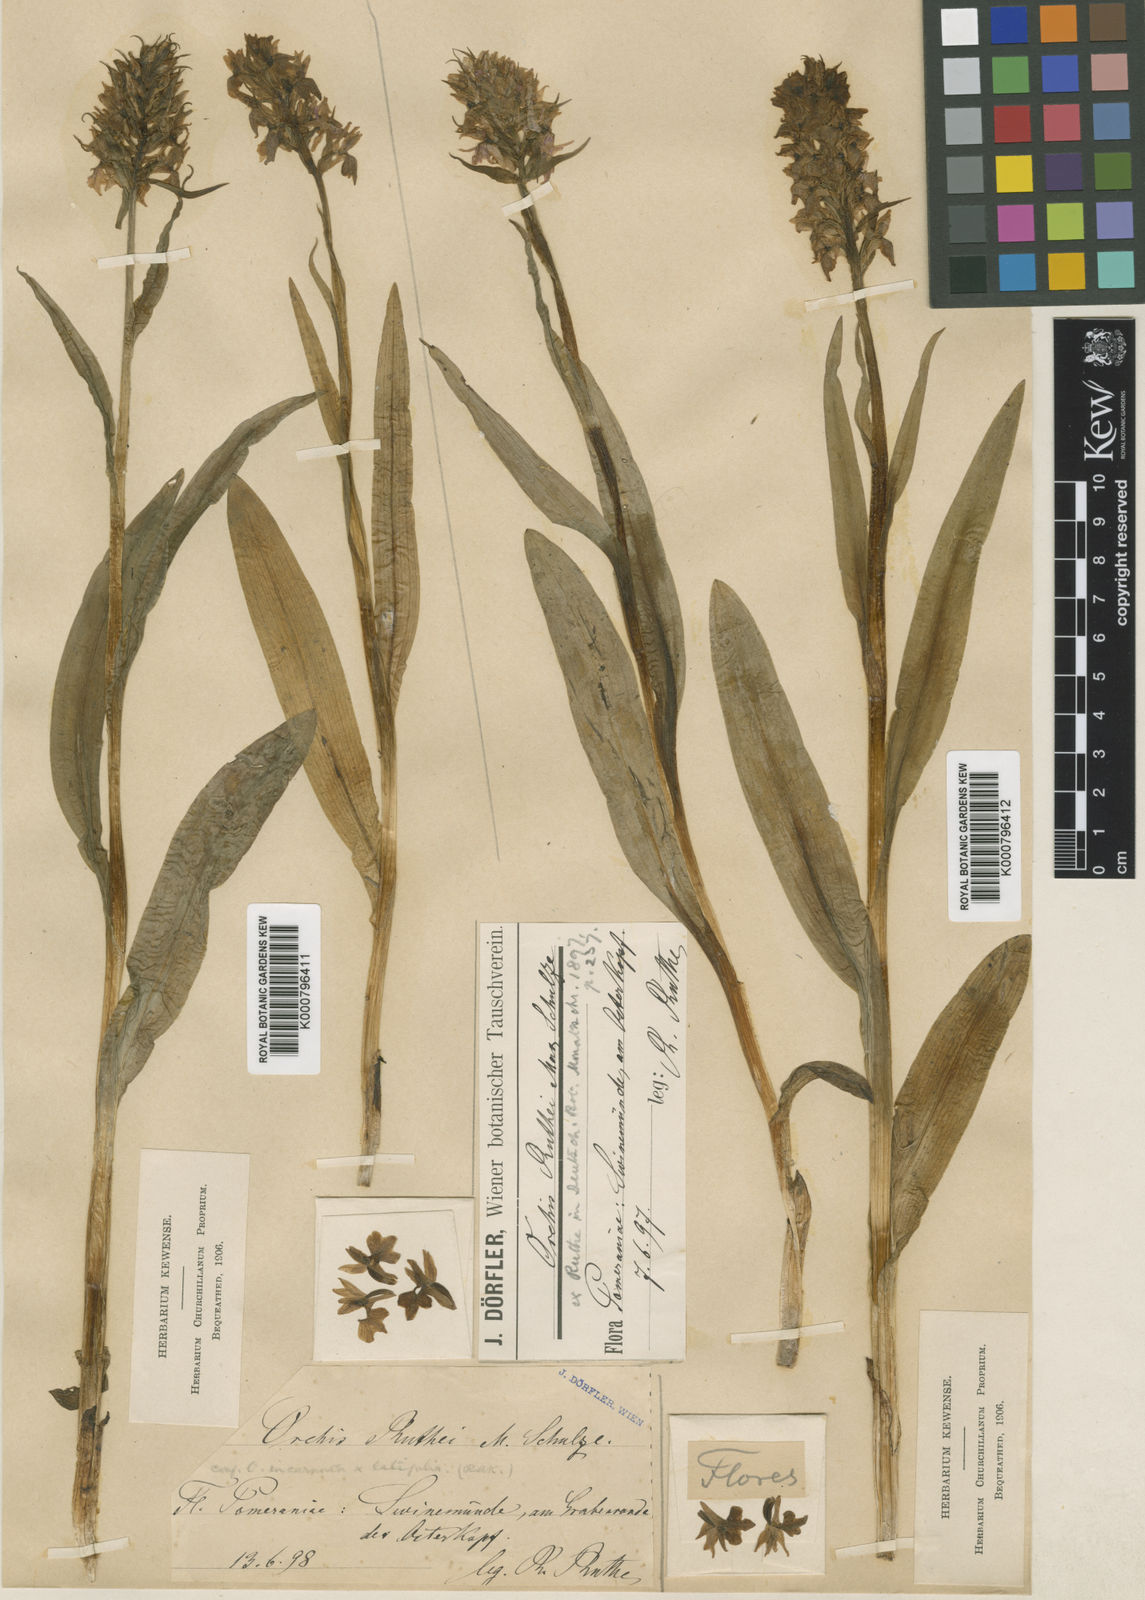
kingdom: Plantae
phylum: Tracheophyta
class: Liliopsida
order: Asparagales
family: Orchidaceae
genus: Dactylorhiza
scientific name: Dactylorhiza
